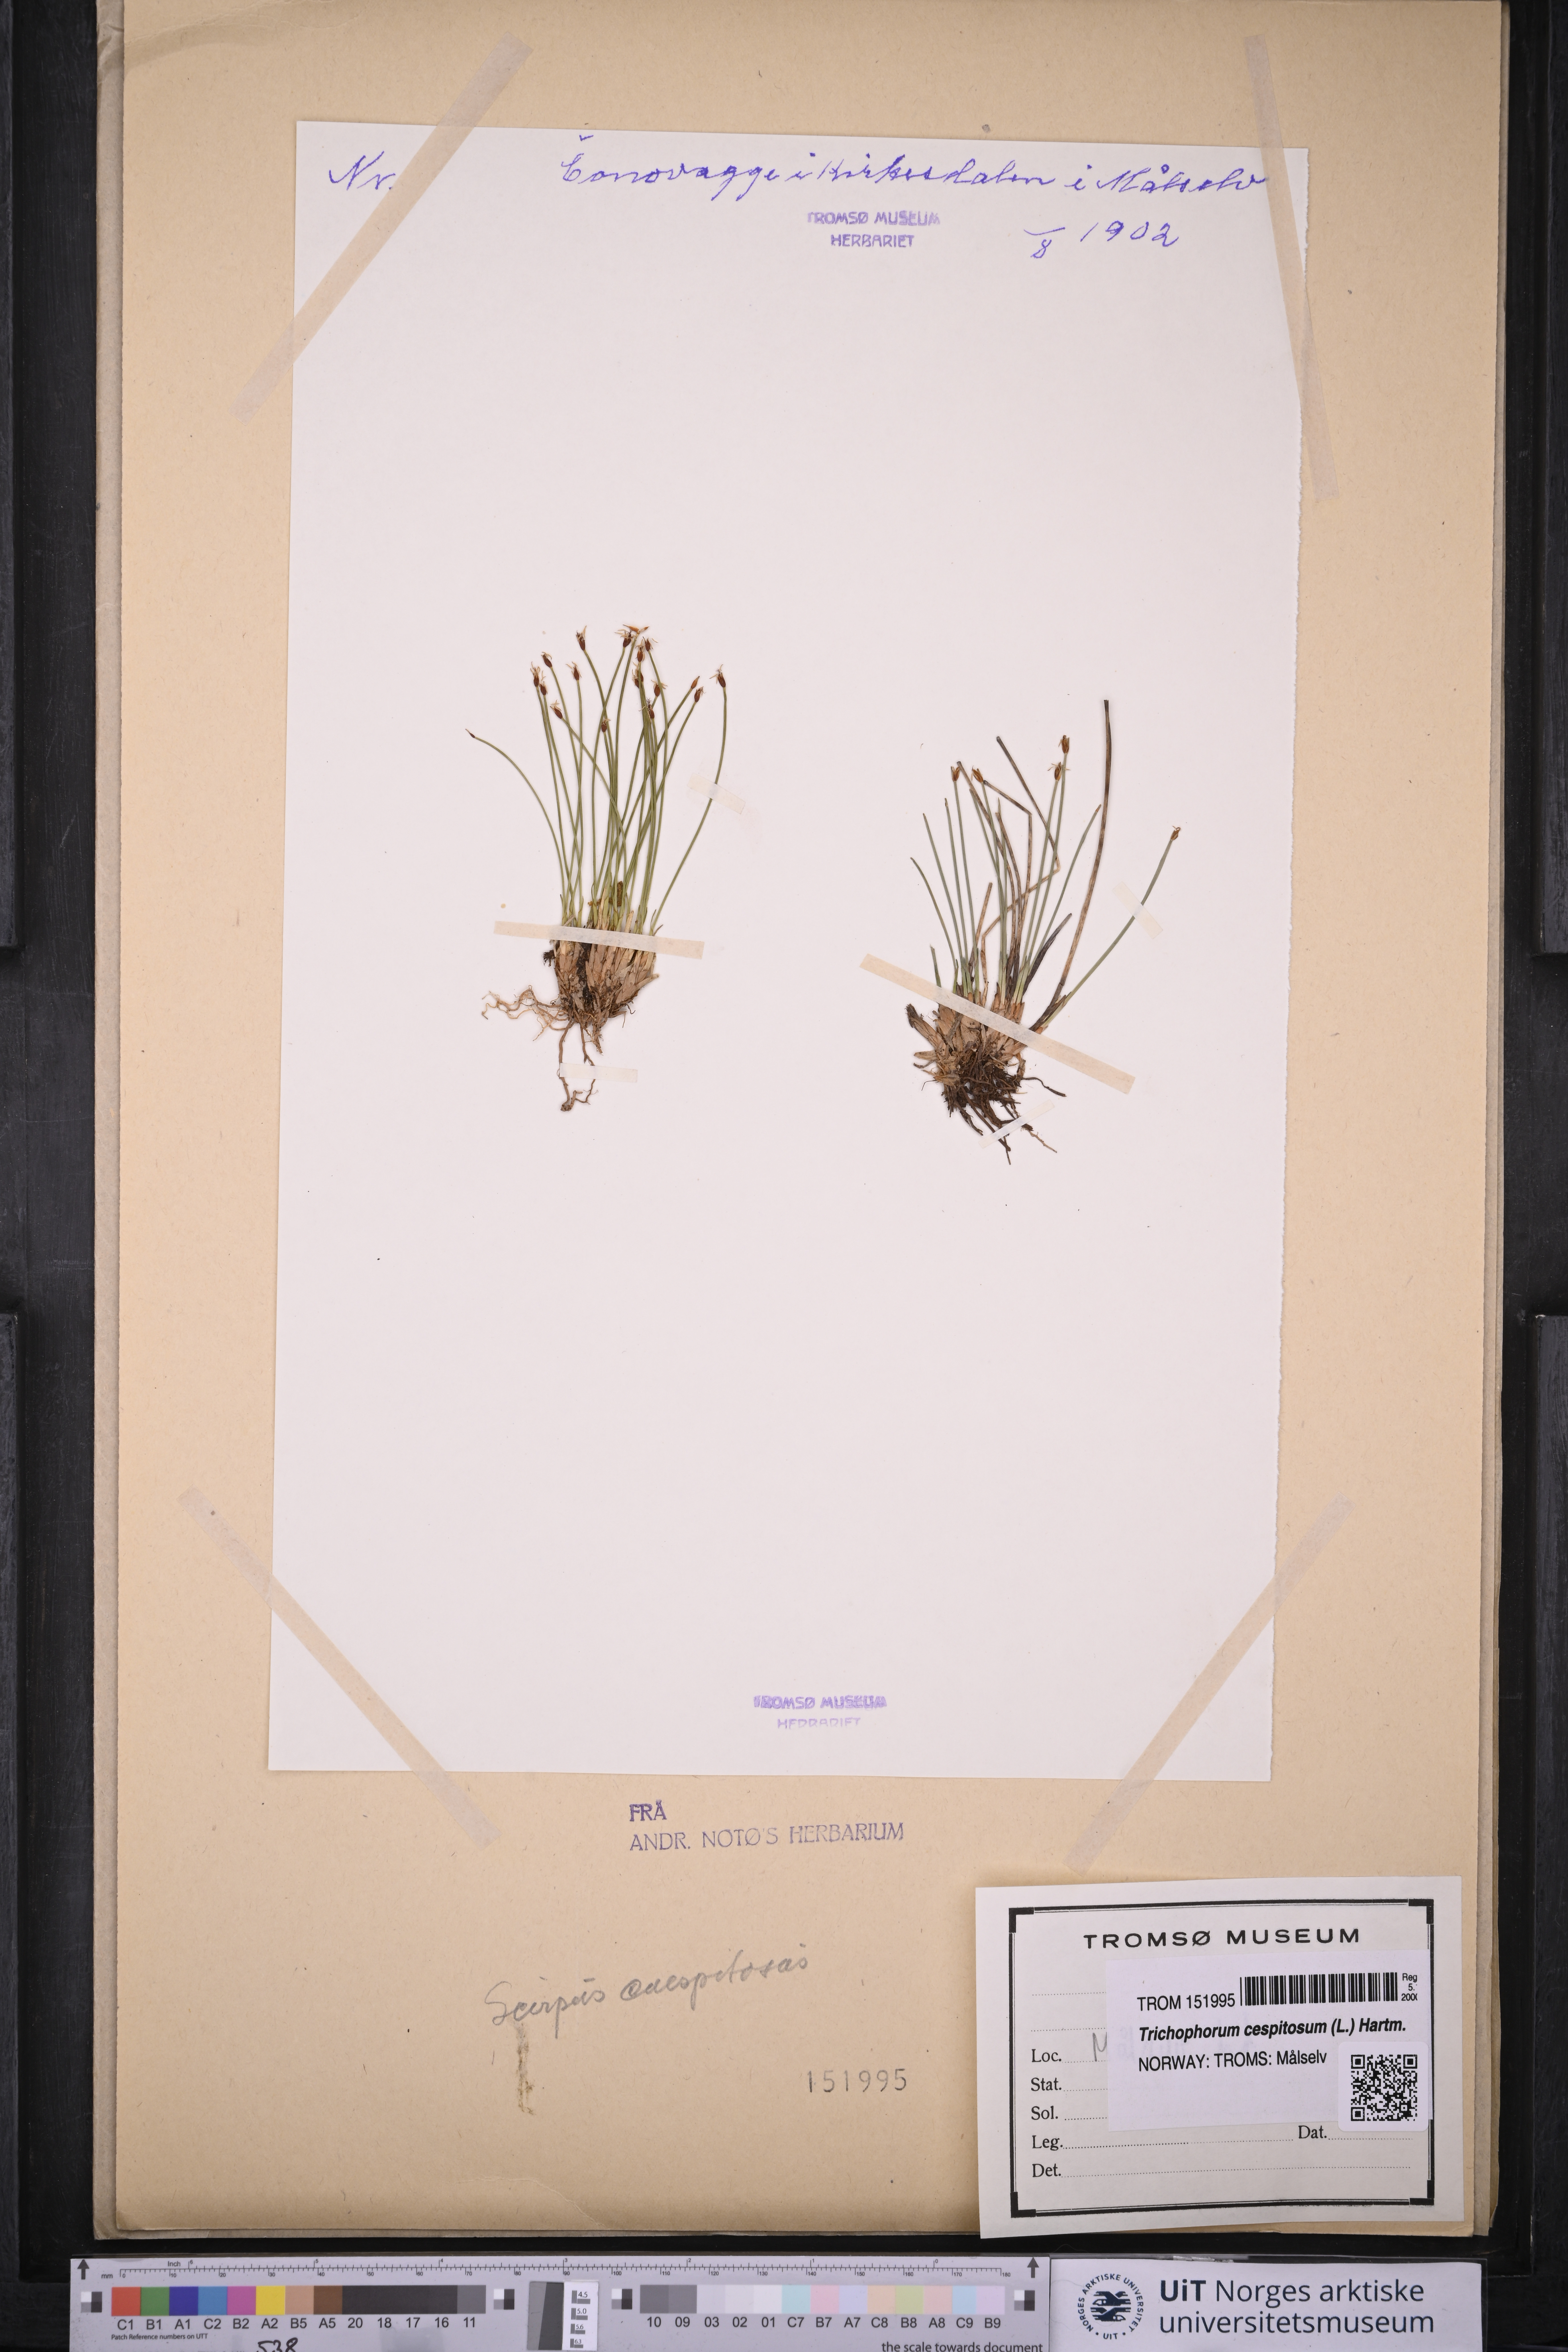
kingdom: Plantae
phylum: Tracheophyta
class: Liliopsida
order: Poales
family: Cyperaceae
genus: Trichophorum
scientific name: Trichophorum cespitosum
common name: Cespitose bulrush
